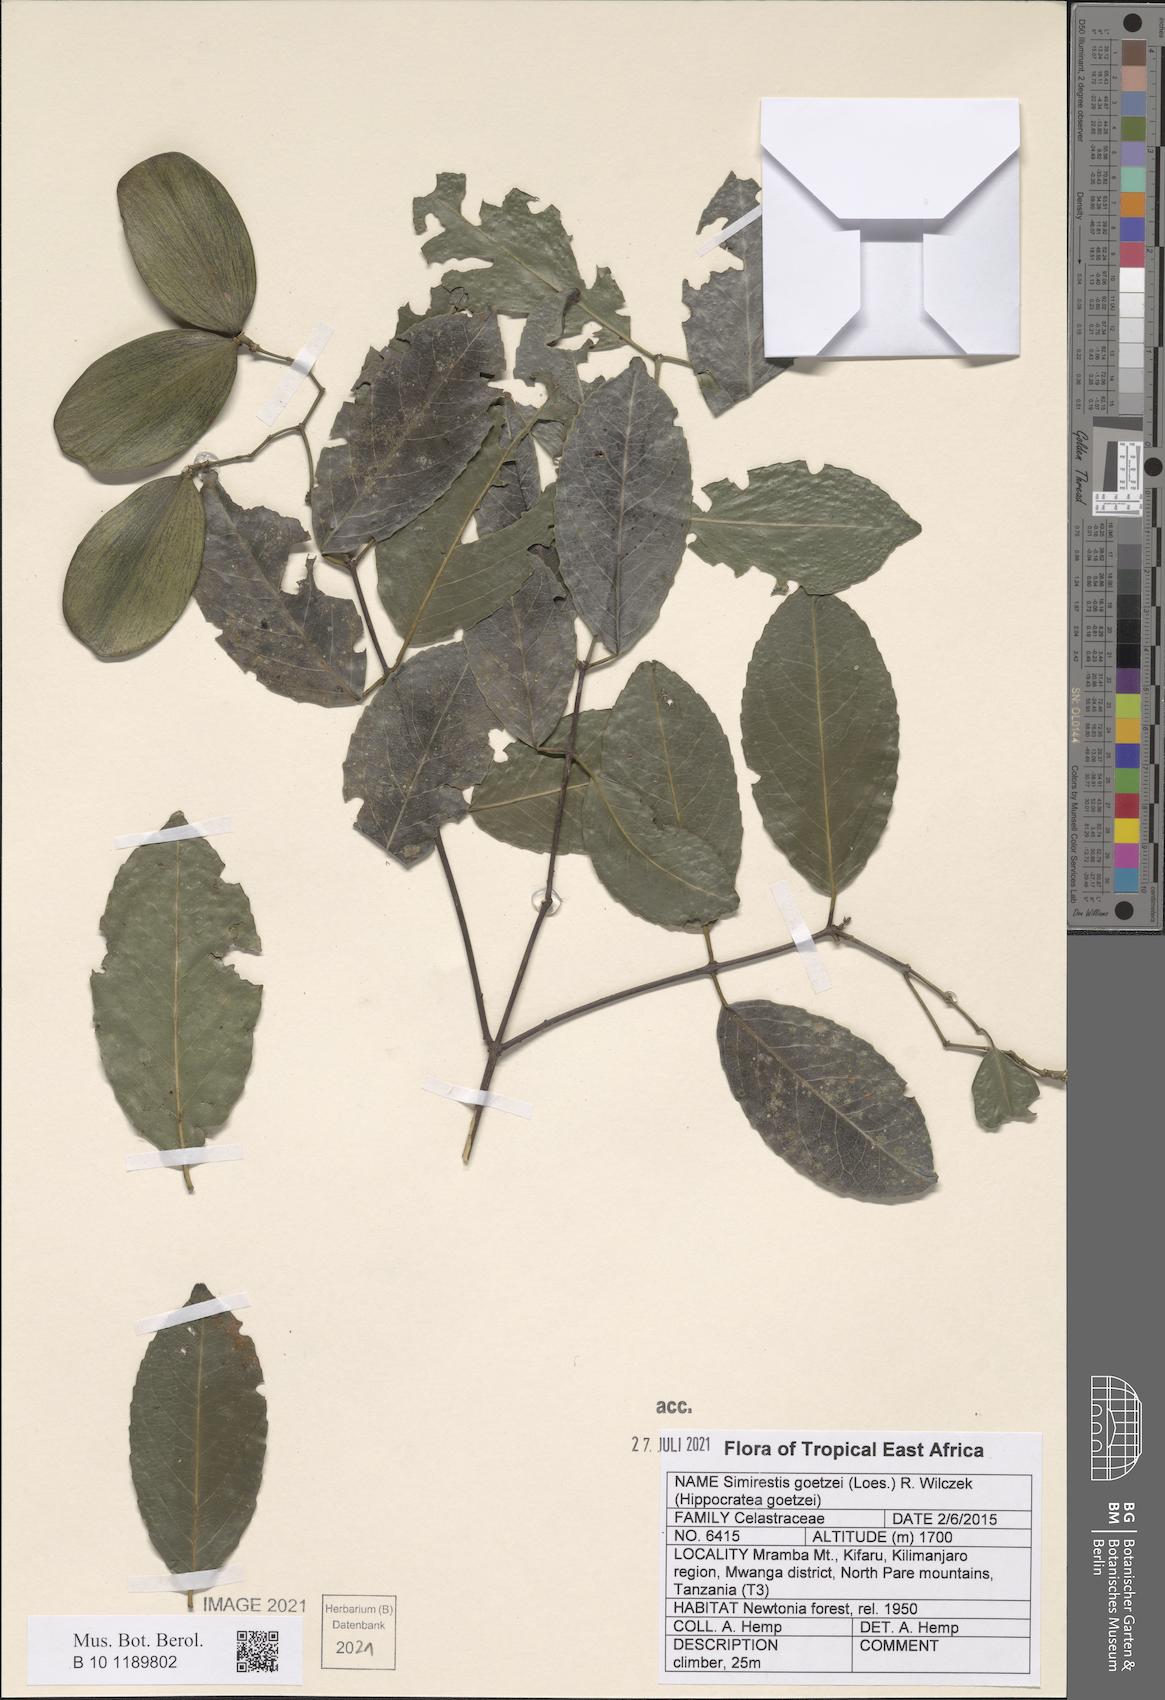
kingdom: Plantae
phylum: Tracheophyta
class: Magnoliopsida
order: Celastrales
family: Celastraceae
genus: Pristimera
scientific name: Pristimera goetzei
